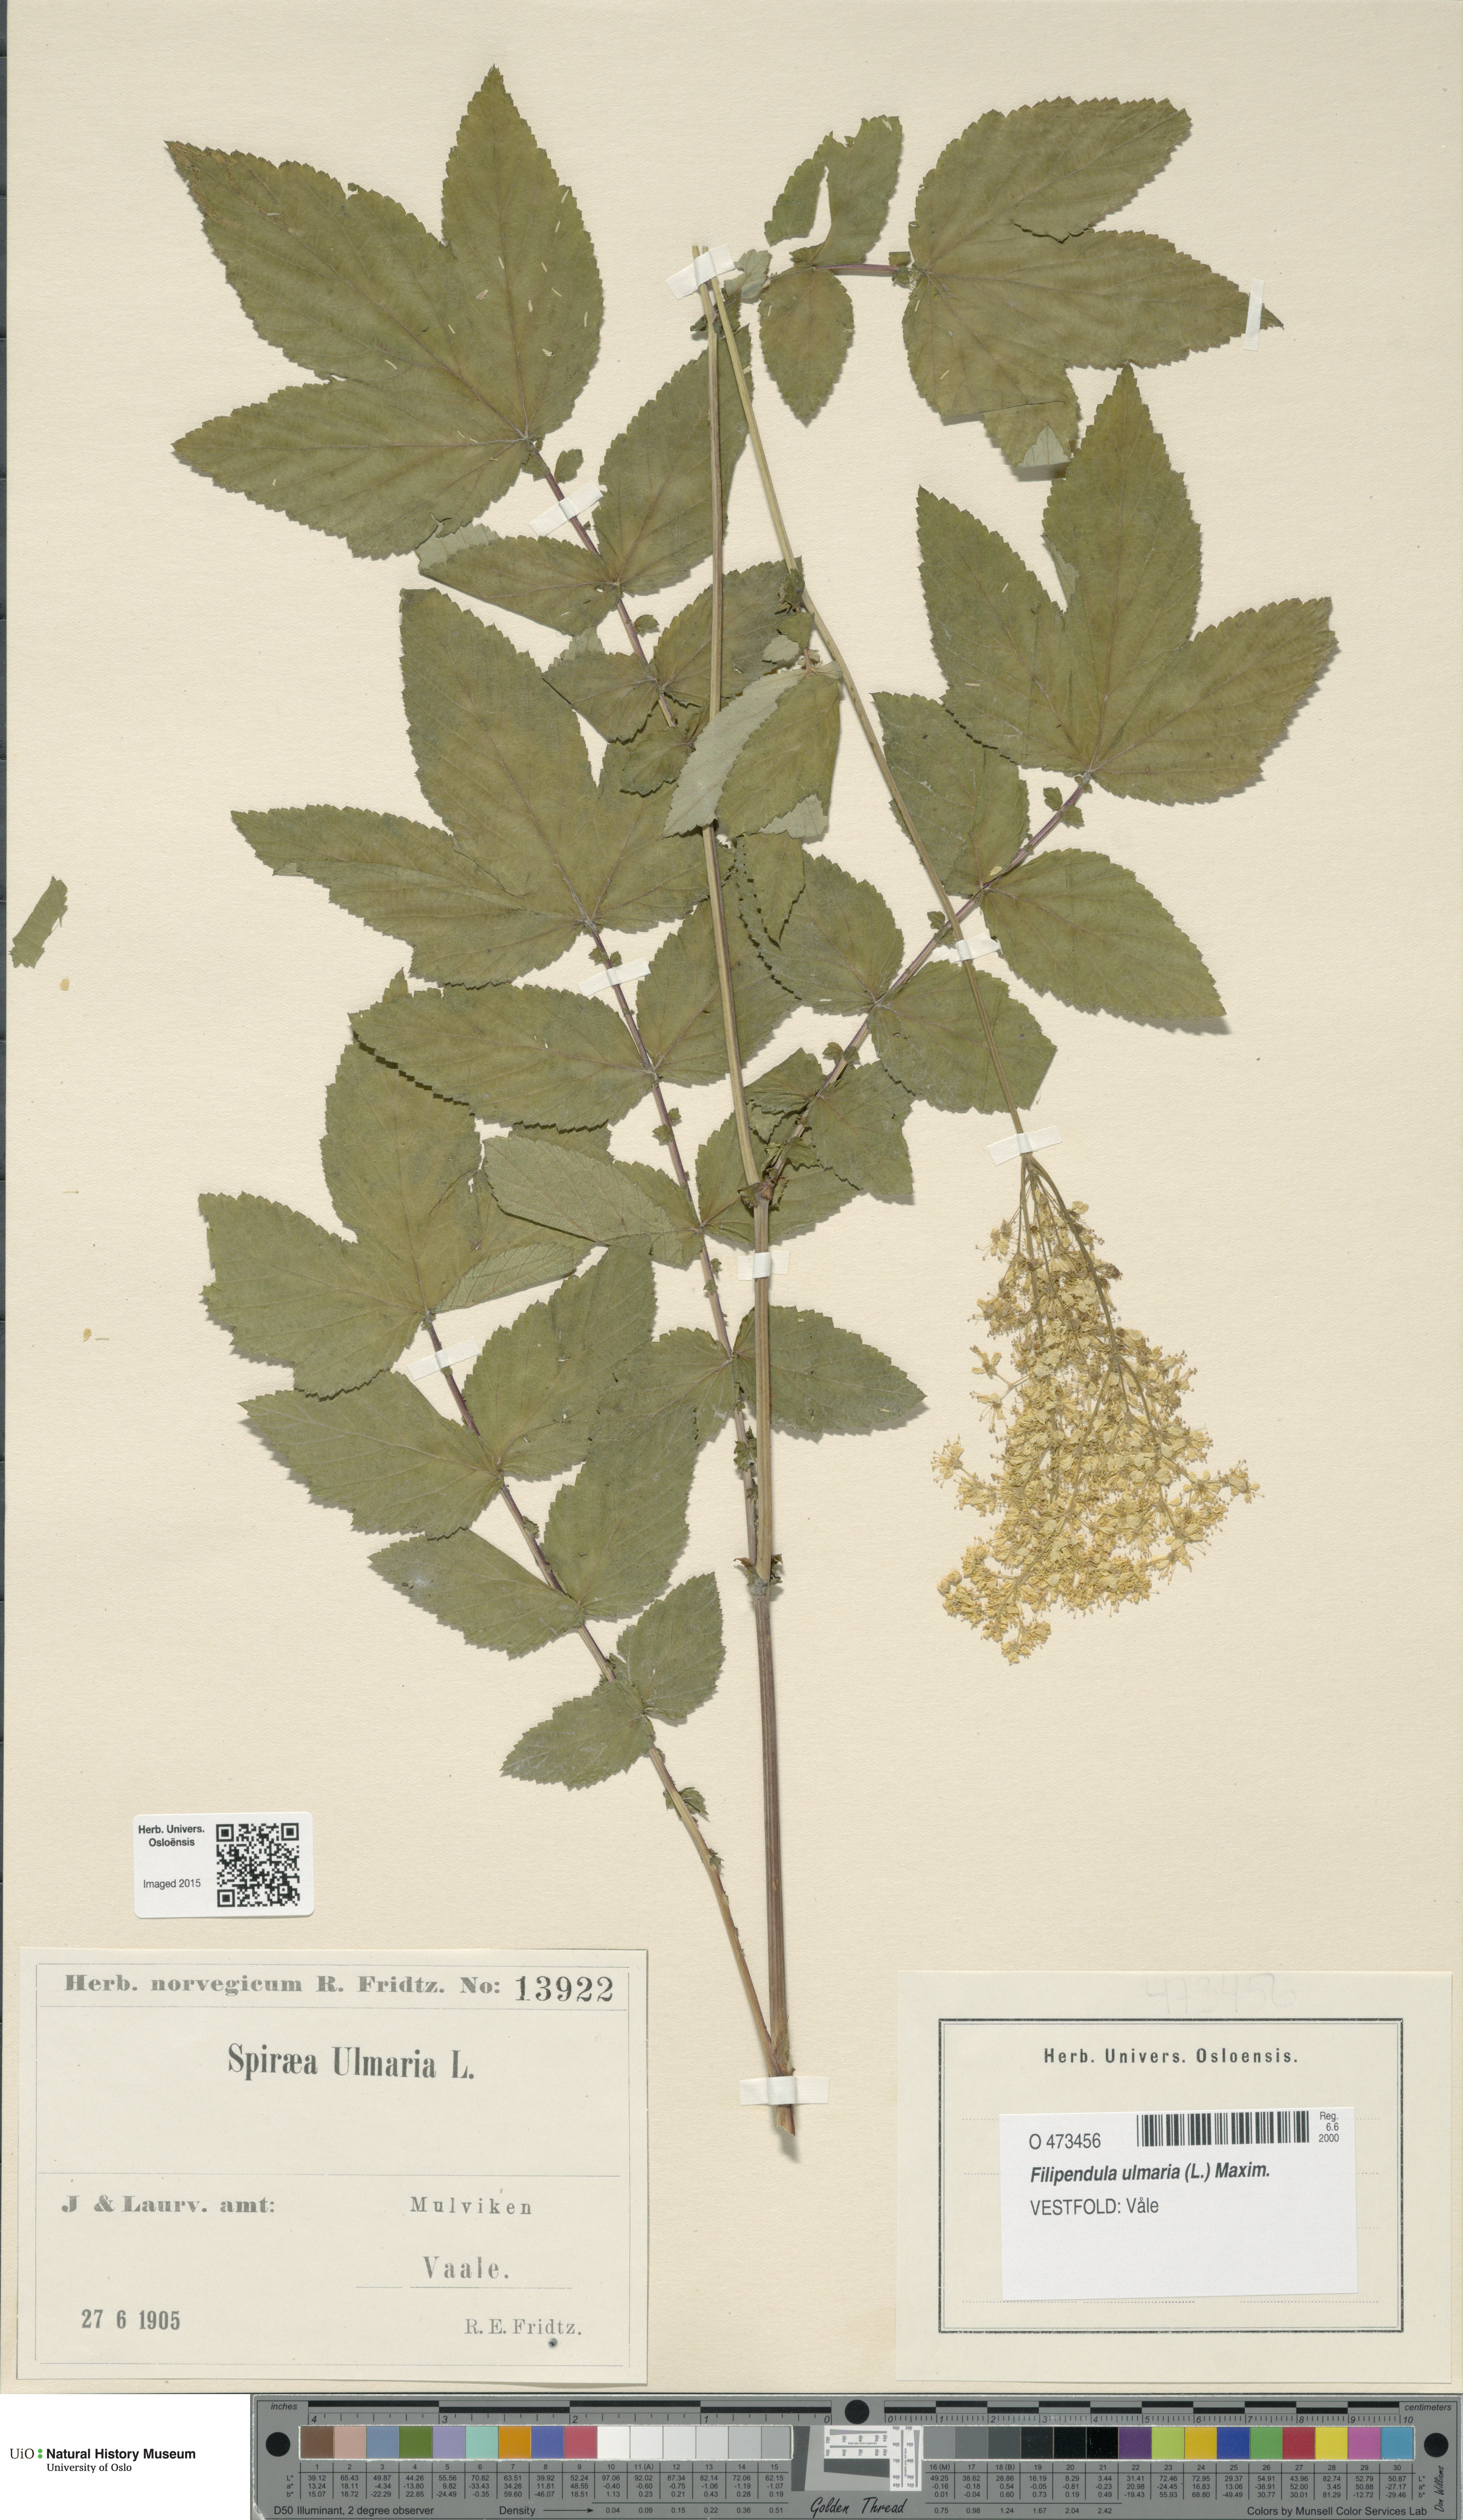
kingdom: Plantae
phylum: Tracheophyta
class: Magnoliopsida
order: Rosales
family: Rosaceae
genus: Filipendula
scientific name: Filipendula ulmaria
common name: Meadowsweet
